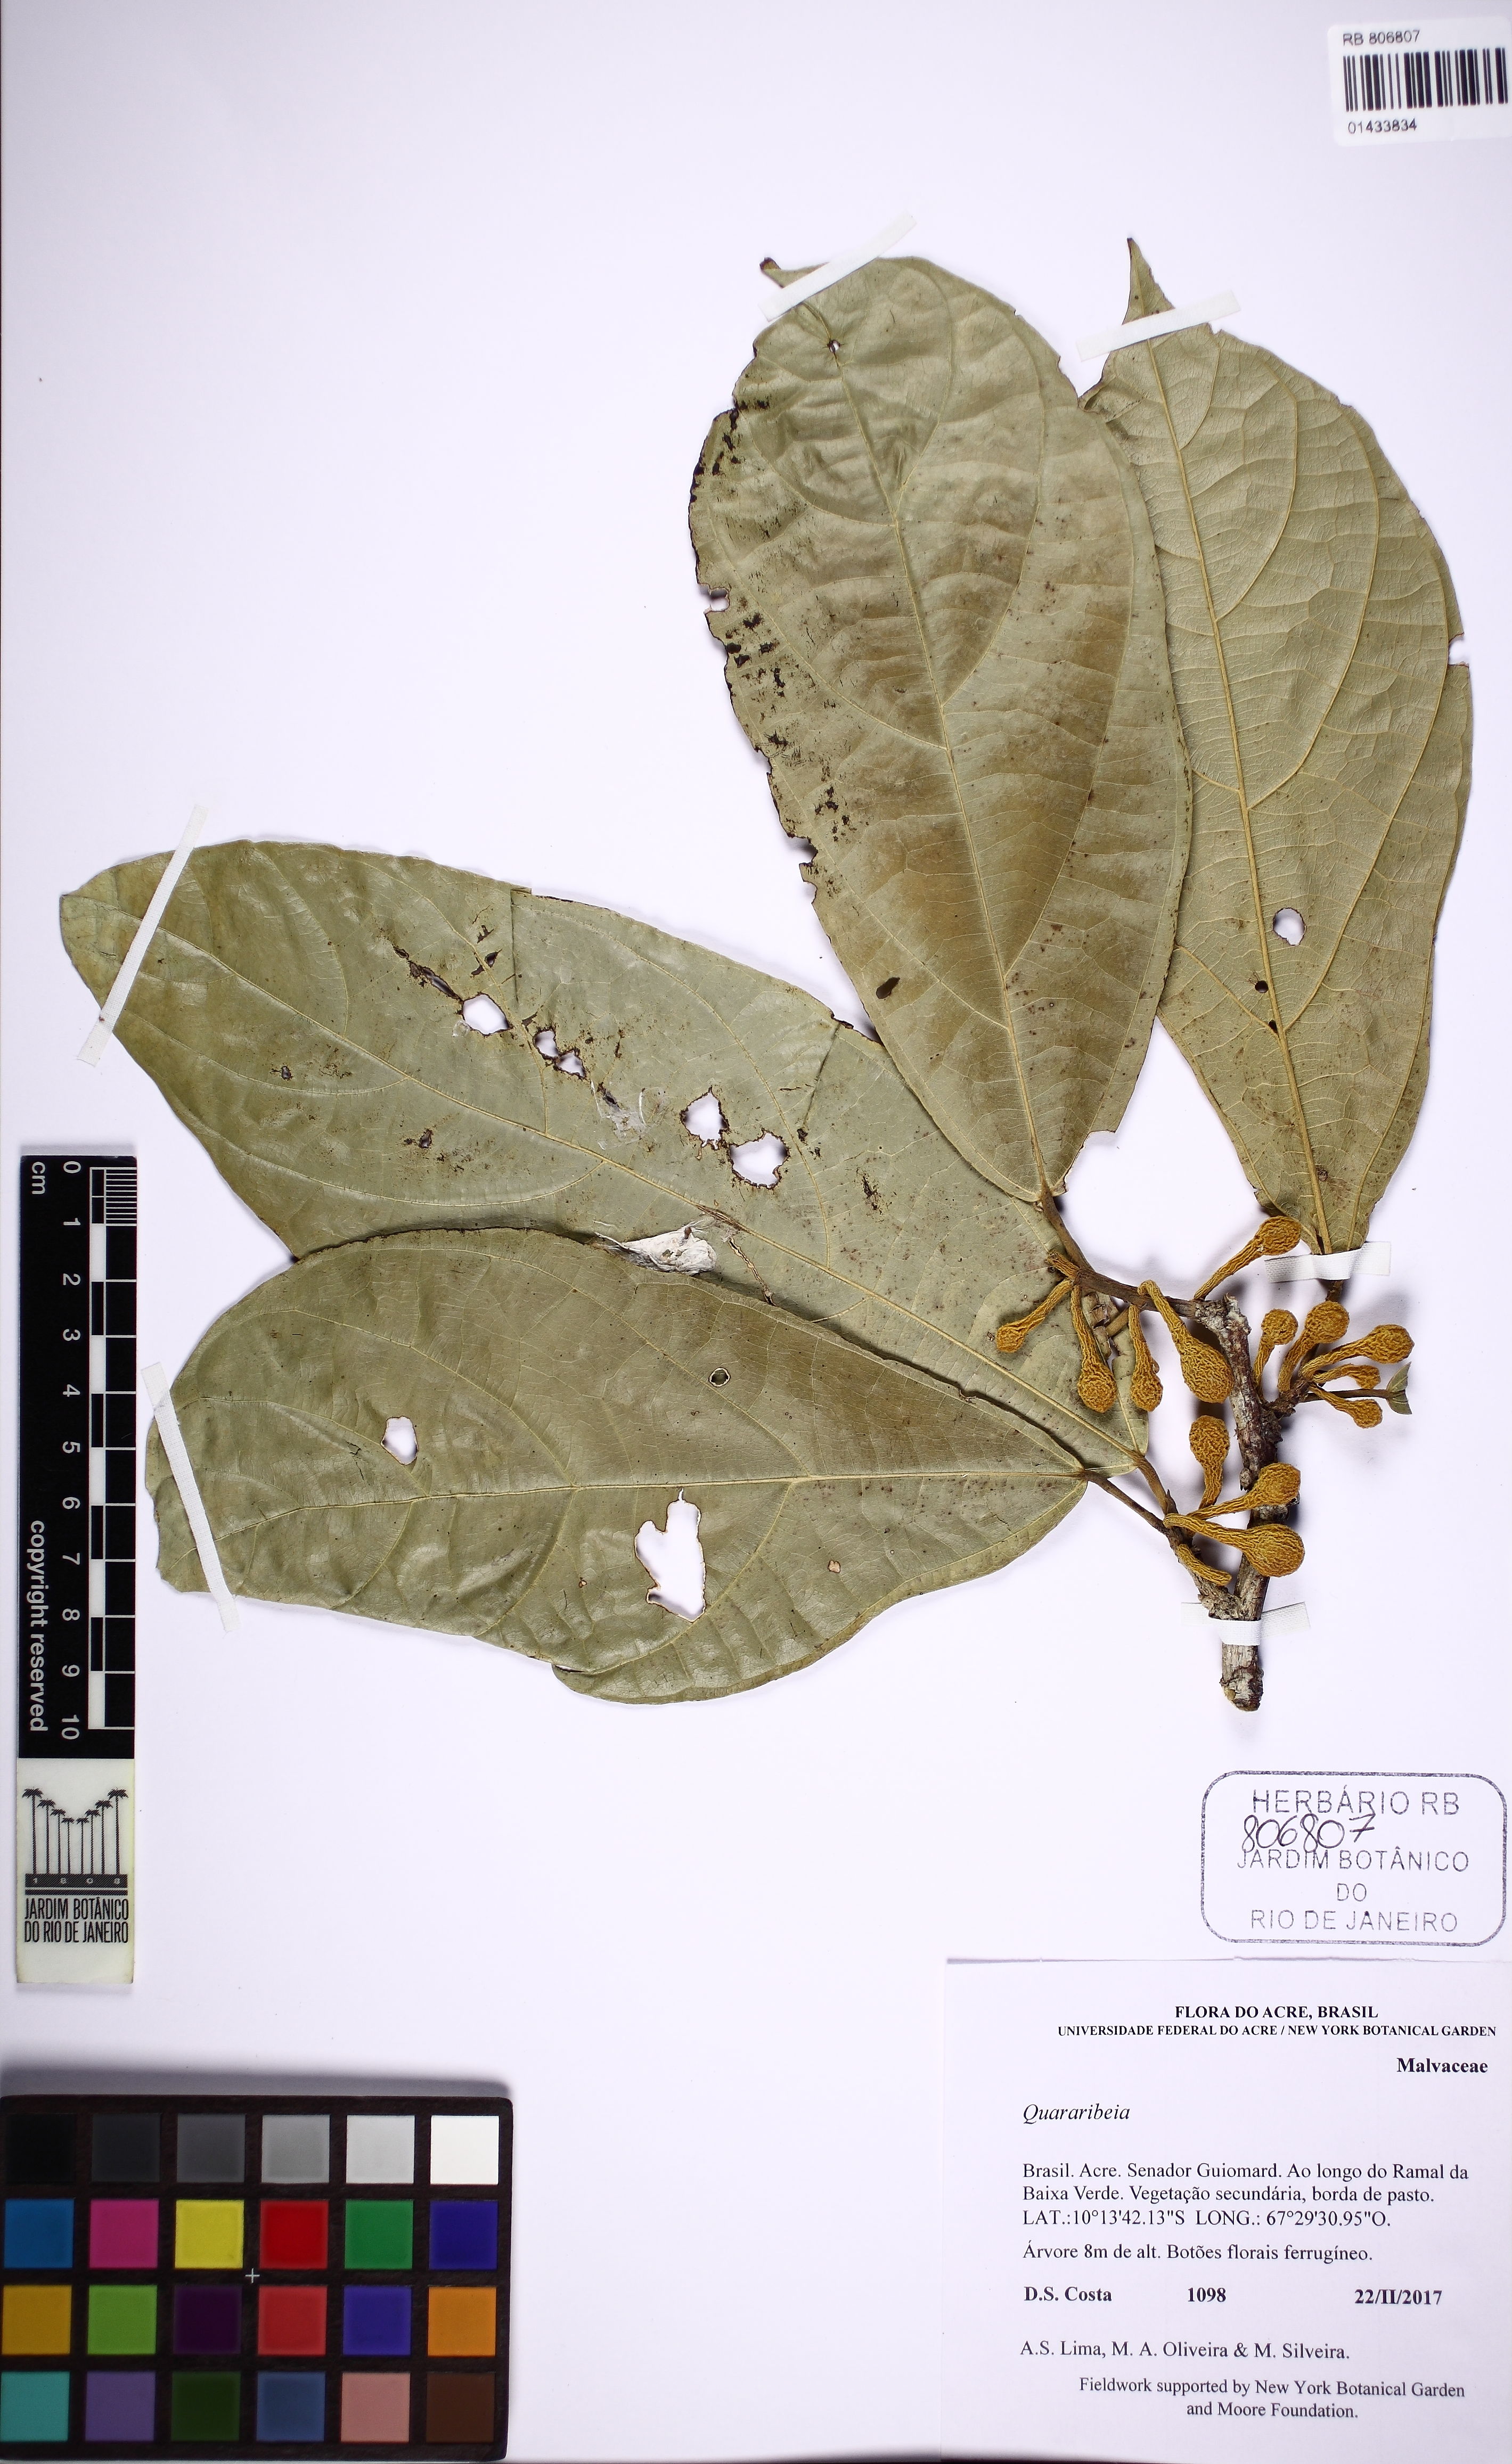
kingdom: Plantae
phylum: Tracheophyta
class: Magnoliopsida
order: Malvales
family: Malvaceae
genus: Quararibea
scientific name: Quararibea
